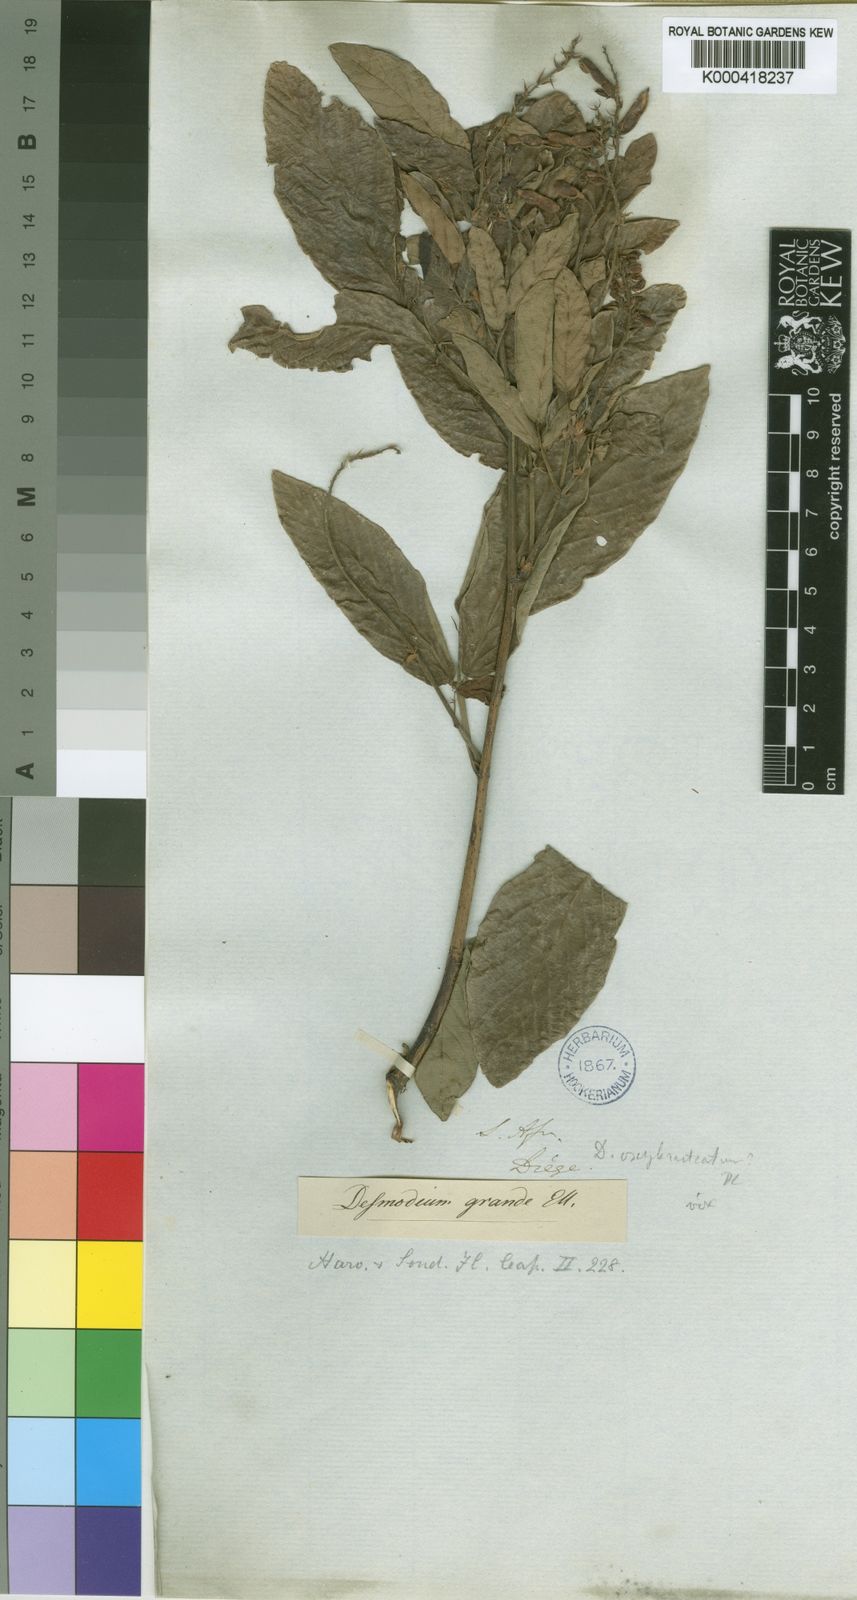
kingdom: Plantae
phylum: Tracheophyta
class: Magnoliopsida
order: Fabales
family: Fabaceae
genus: Desmodium
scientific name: Desmodium
